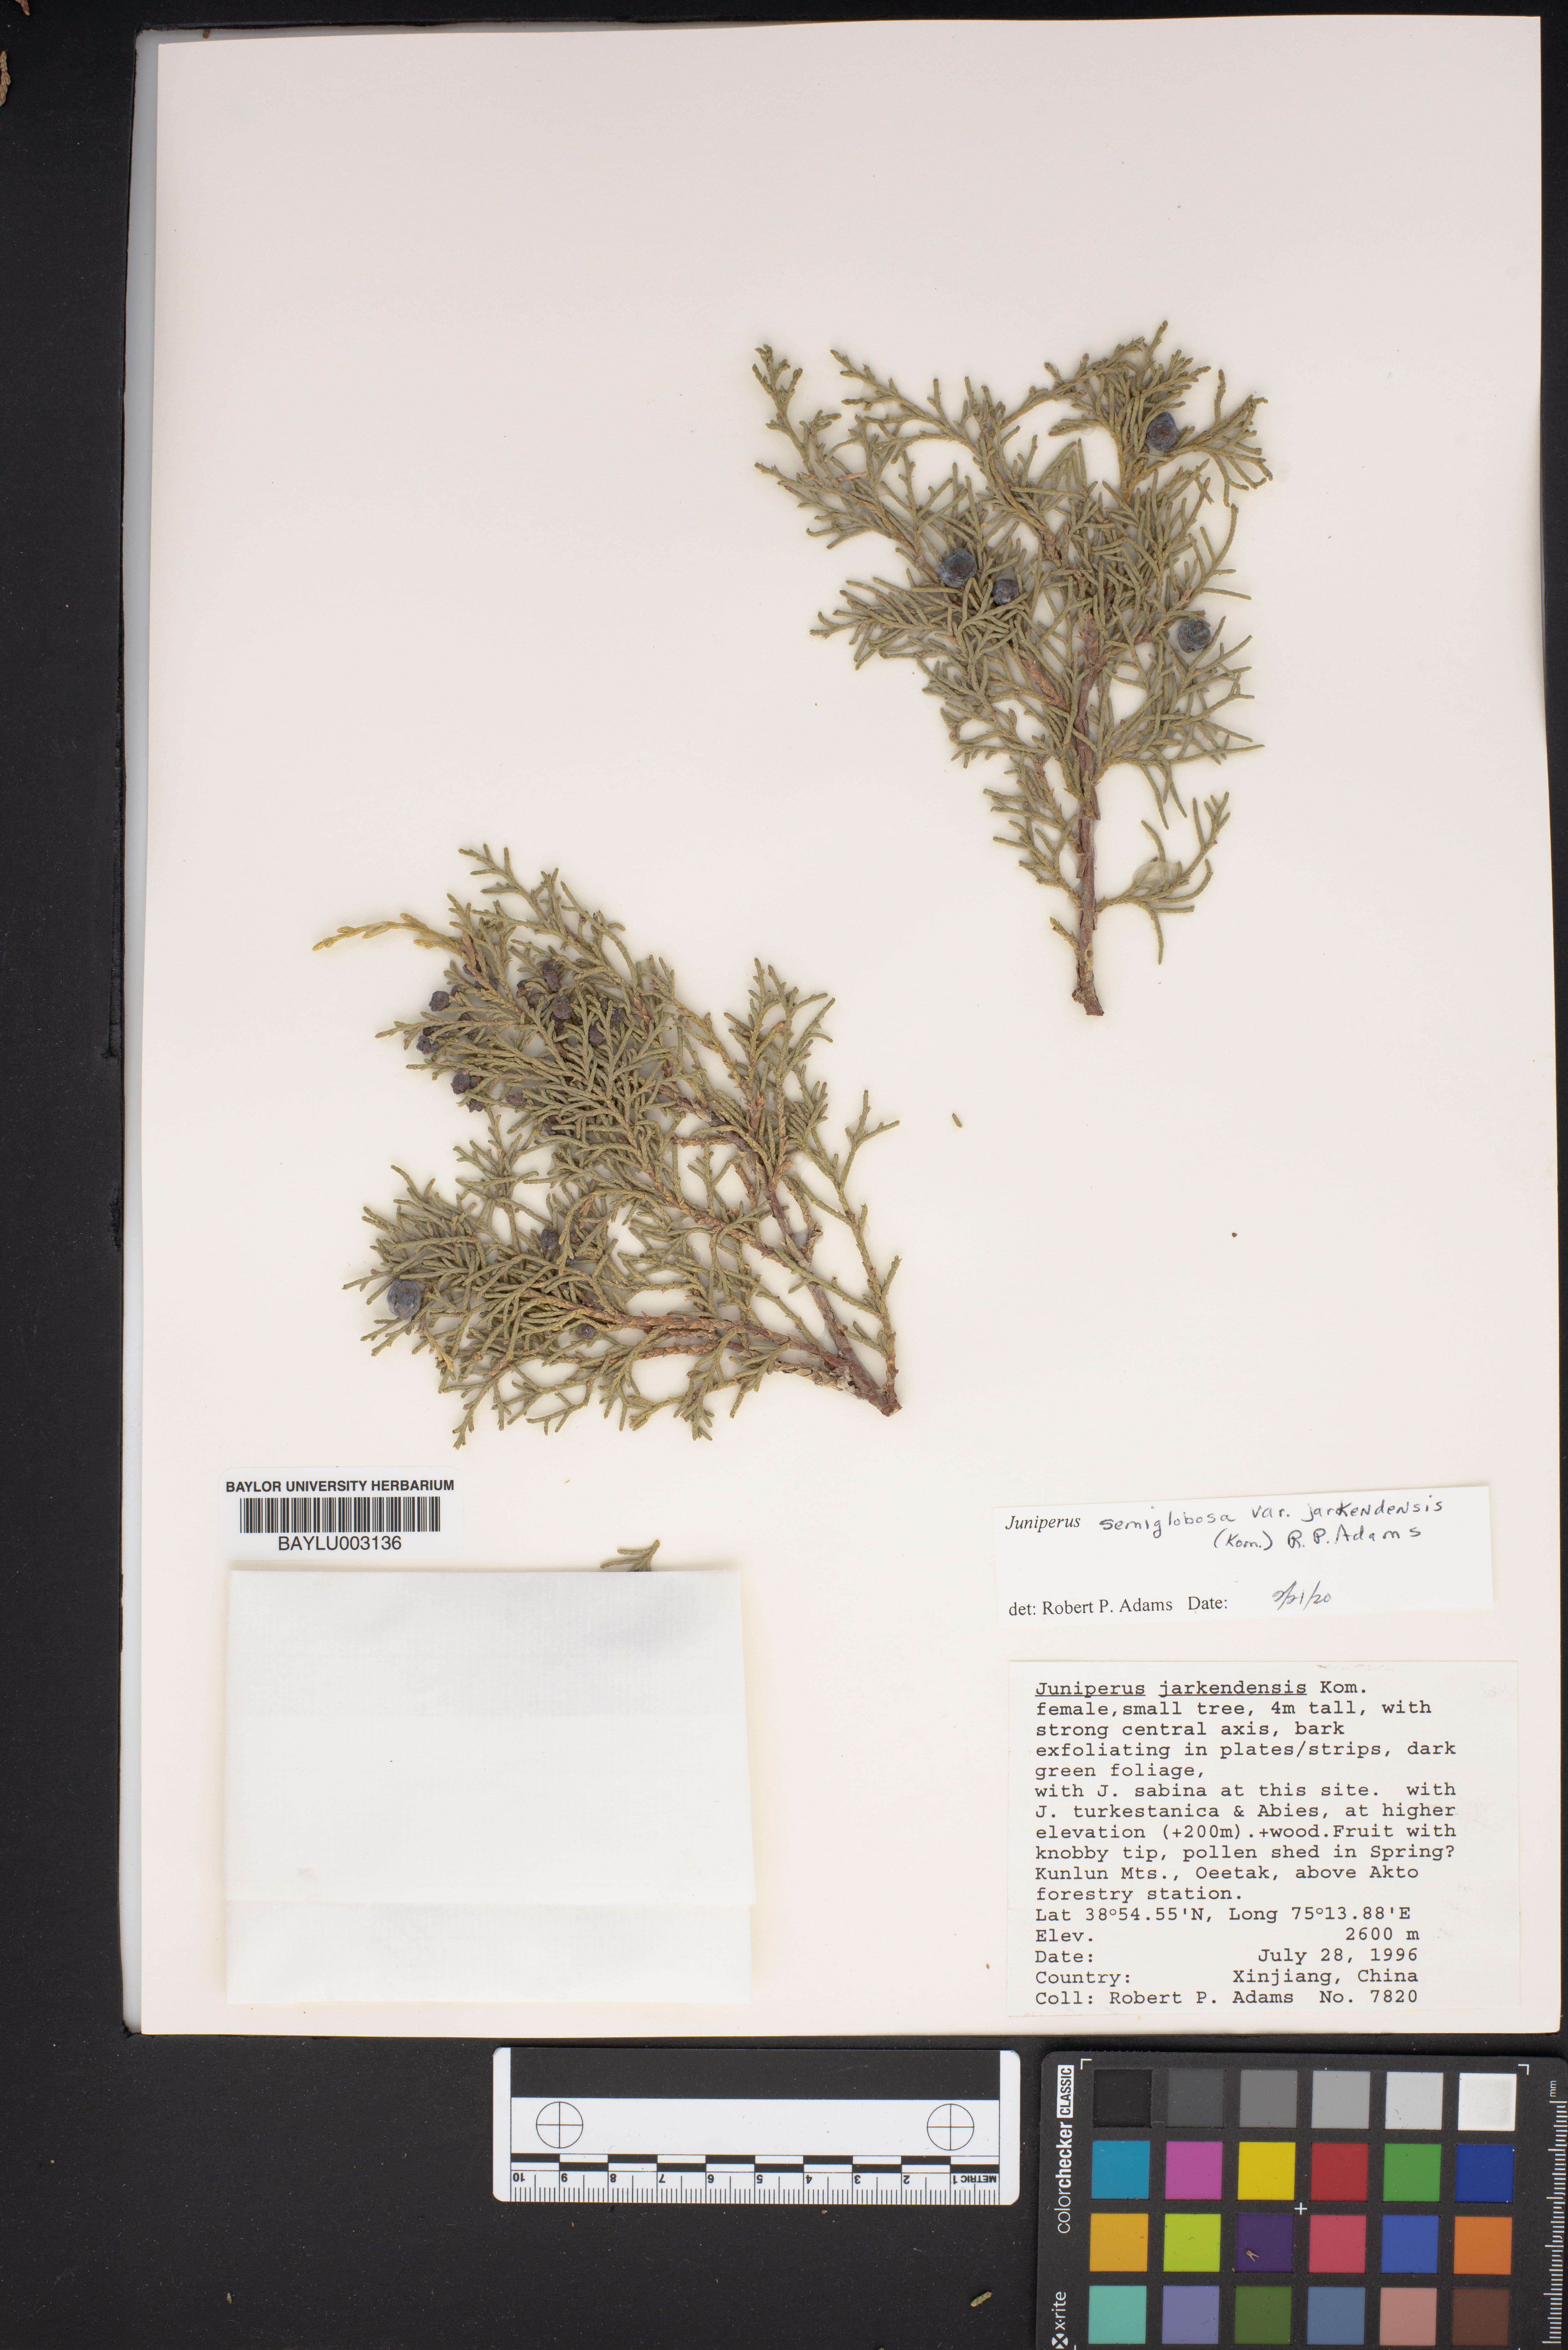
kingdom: Plantae
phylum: Tracheophyta
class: Pinopsida
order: Pinales
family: Cupressaceae
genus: Juniperus
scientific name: Juniperus semiglobosa
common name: Pencil cedar
